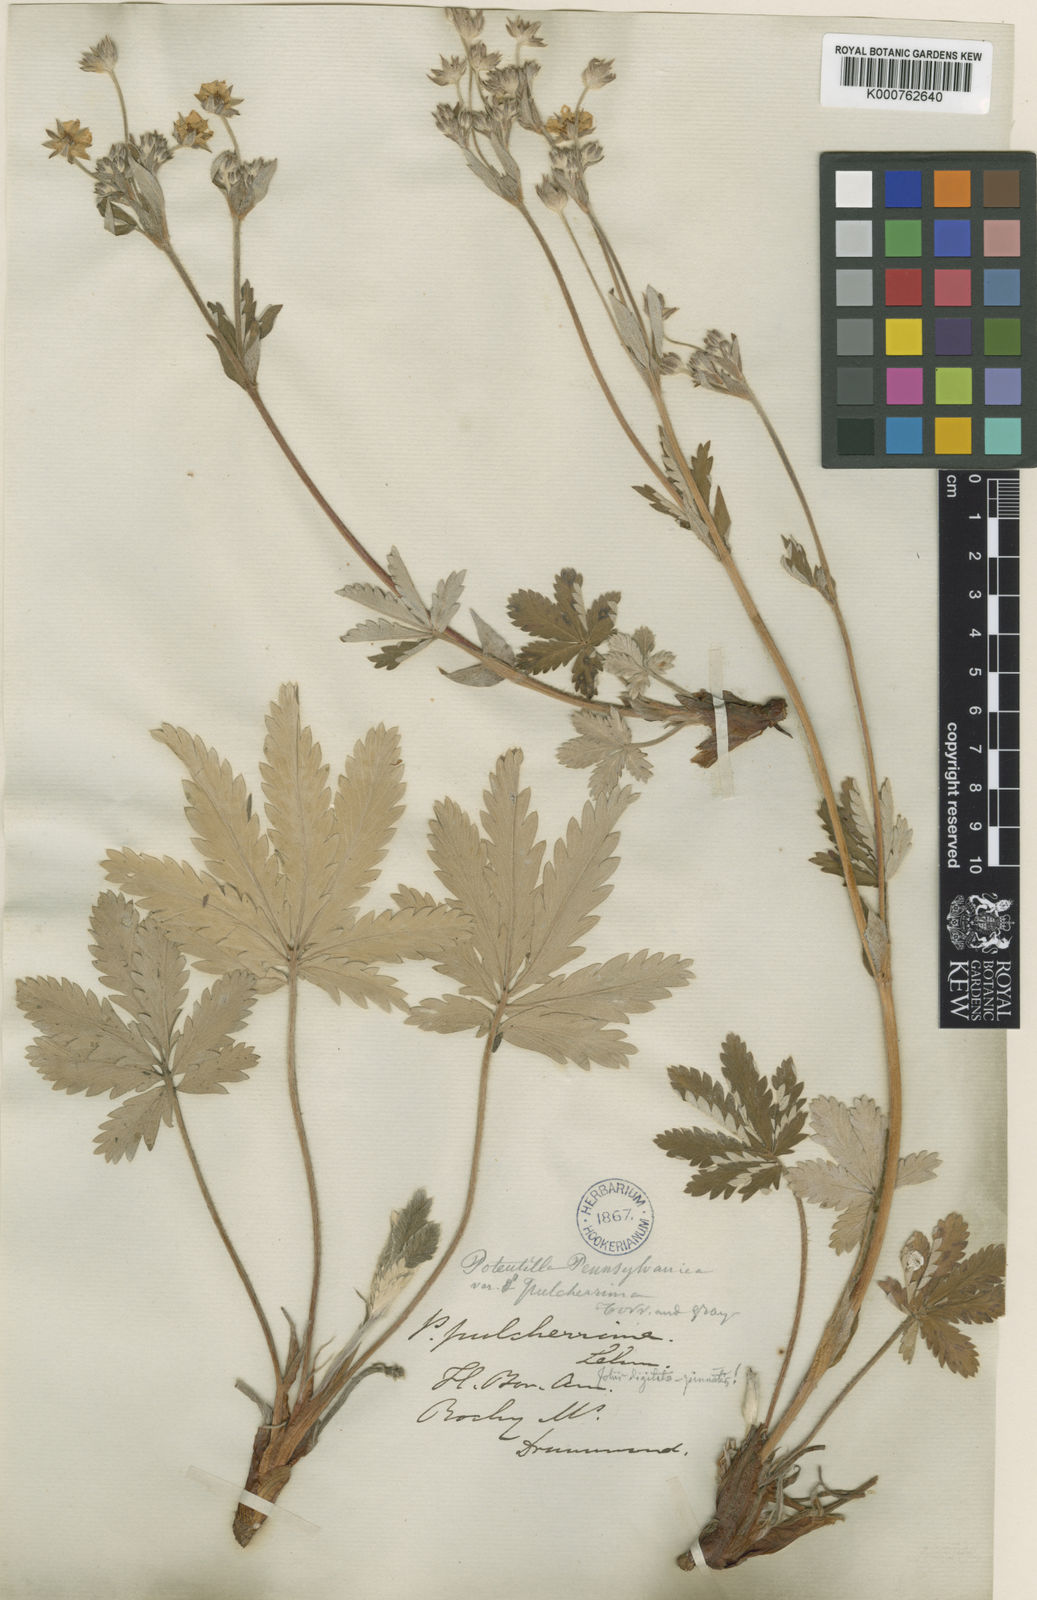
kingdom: Plantae
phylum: Tracheophyta
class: Magnoliopsida
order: Rosales
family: Rosaceae
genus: Potentilla
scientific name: Potentilla pulcherrima
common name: Beautiful cinquefoil
